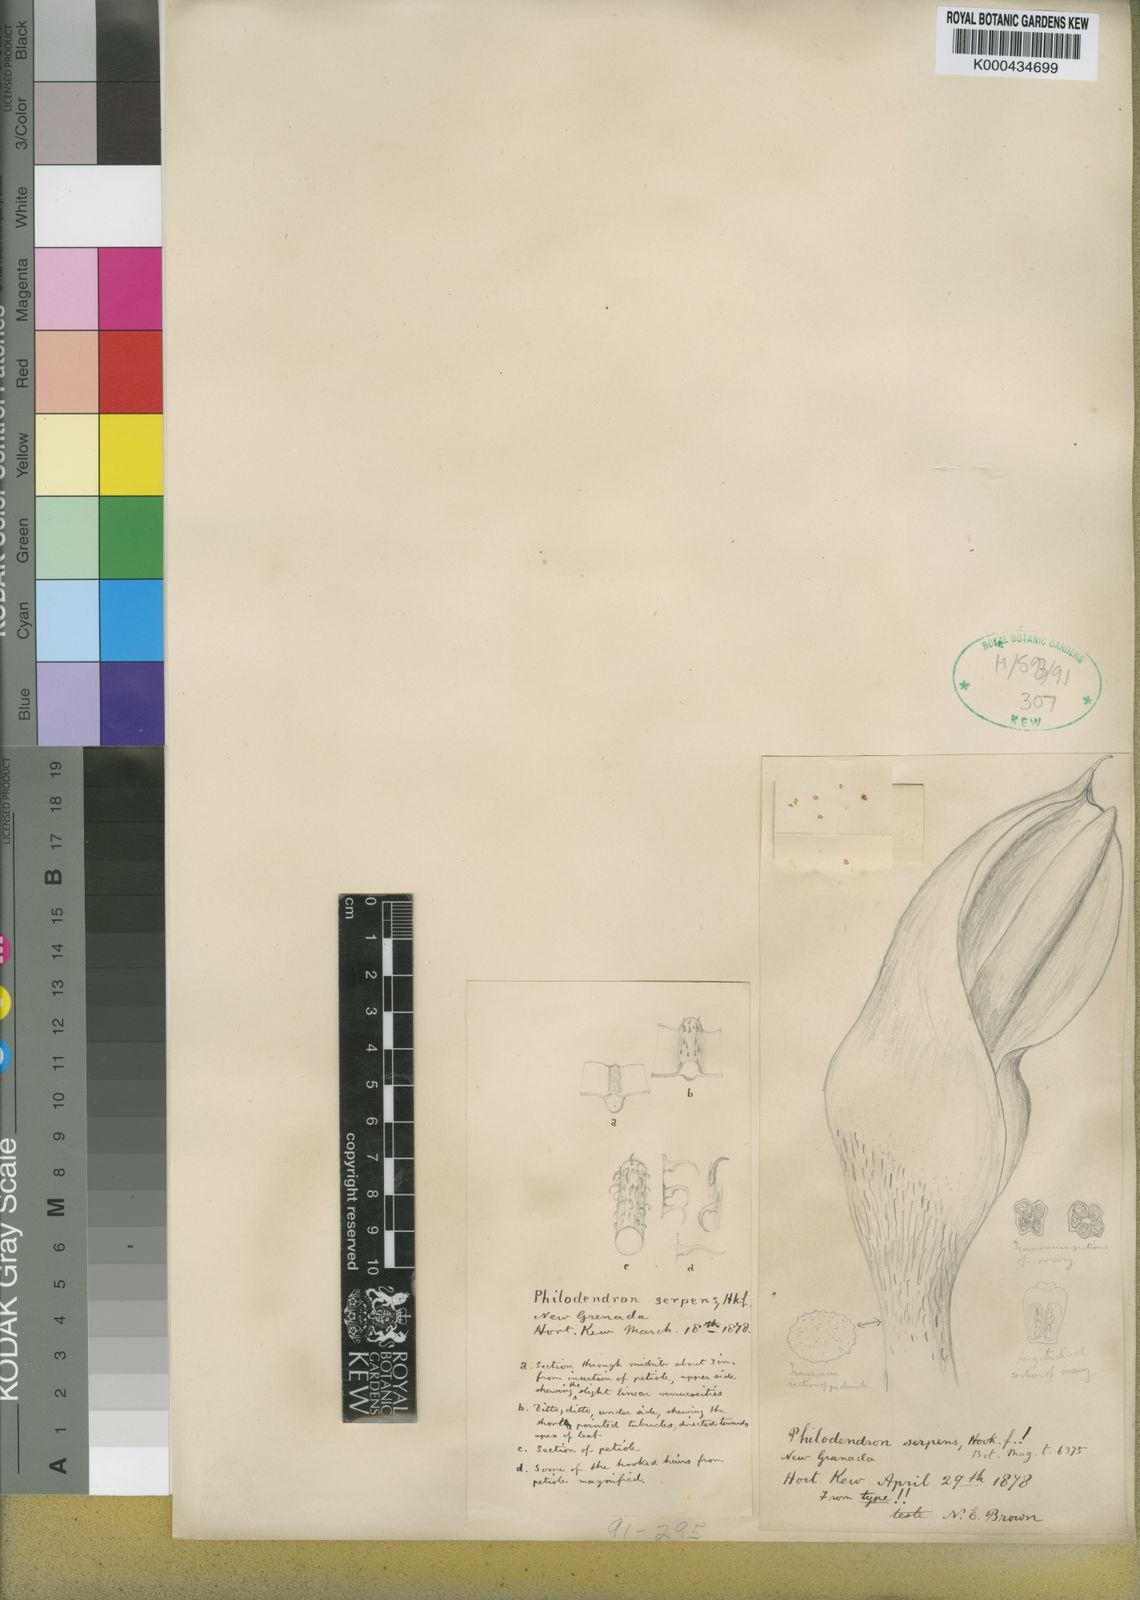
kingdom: Plantae
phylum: Tracheophyta
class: Liliopsida
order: Alismatales
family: Araceae
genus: Philodendron
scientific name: Philodendron serpens
